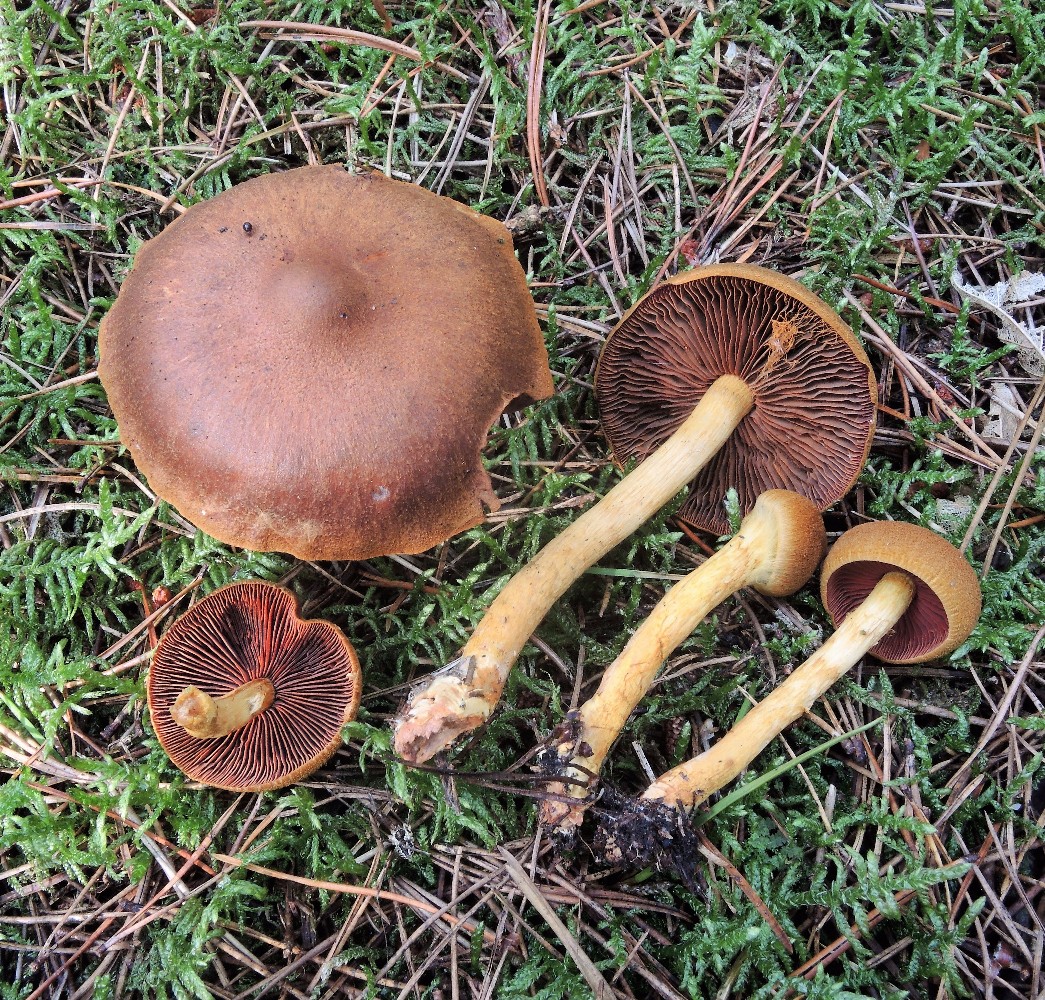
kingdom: Fungi
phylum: Basidiomycota
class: Agaricomycetes
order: Agaricales
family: Cortinariaceae
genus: Cortinarius
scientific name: Cortinarius
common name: cinnoberbladet slørhat
